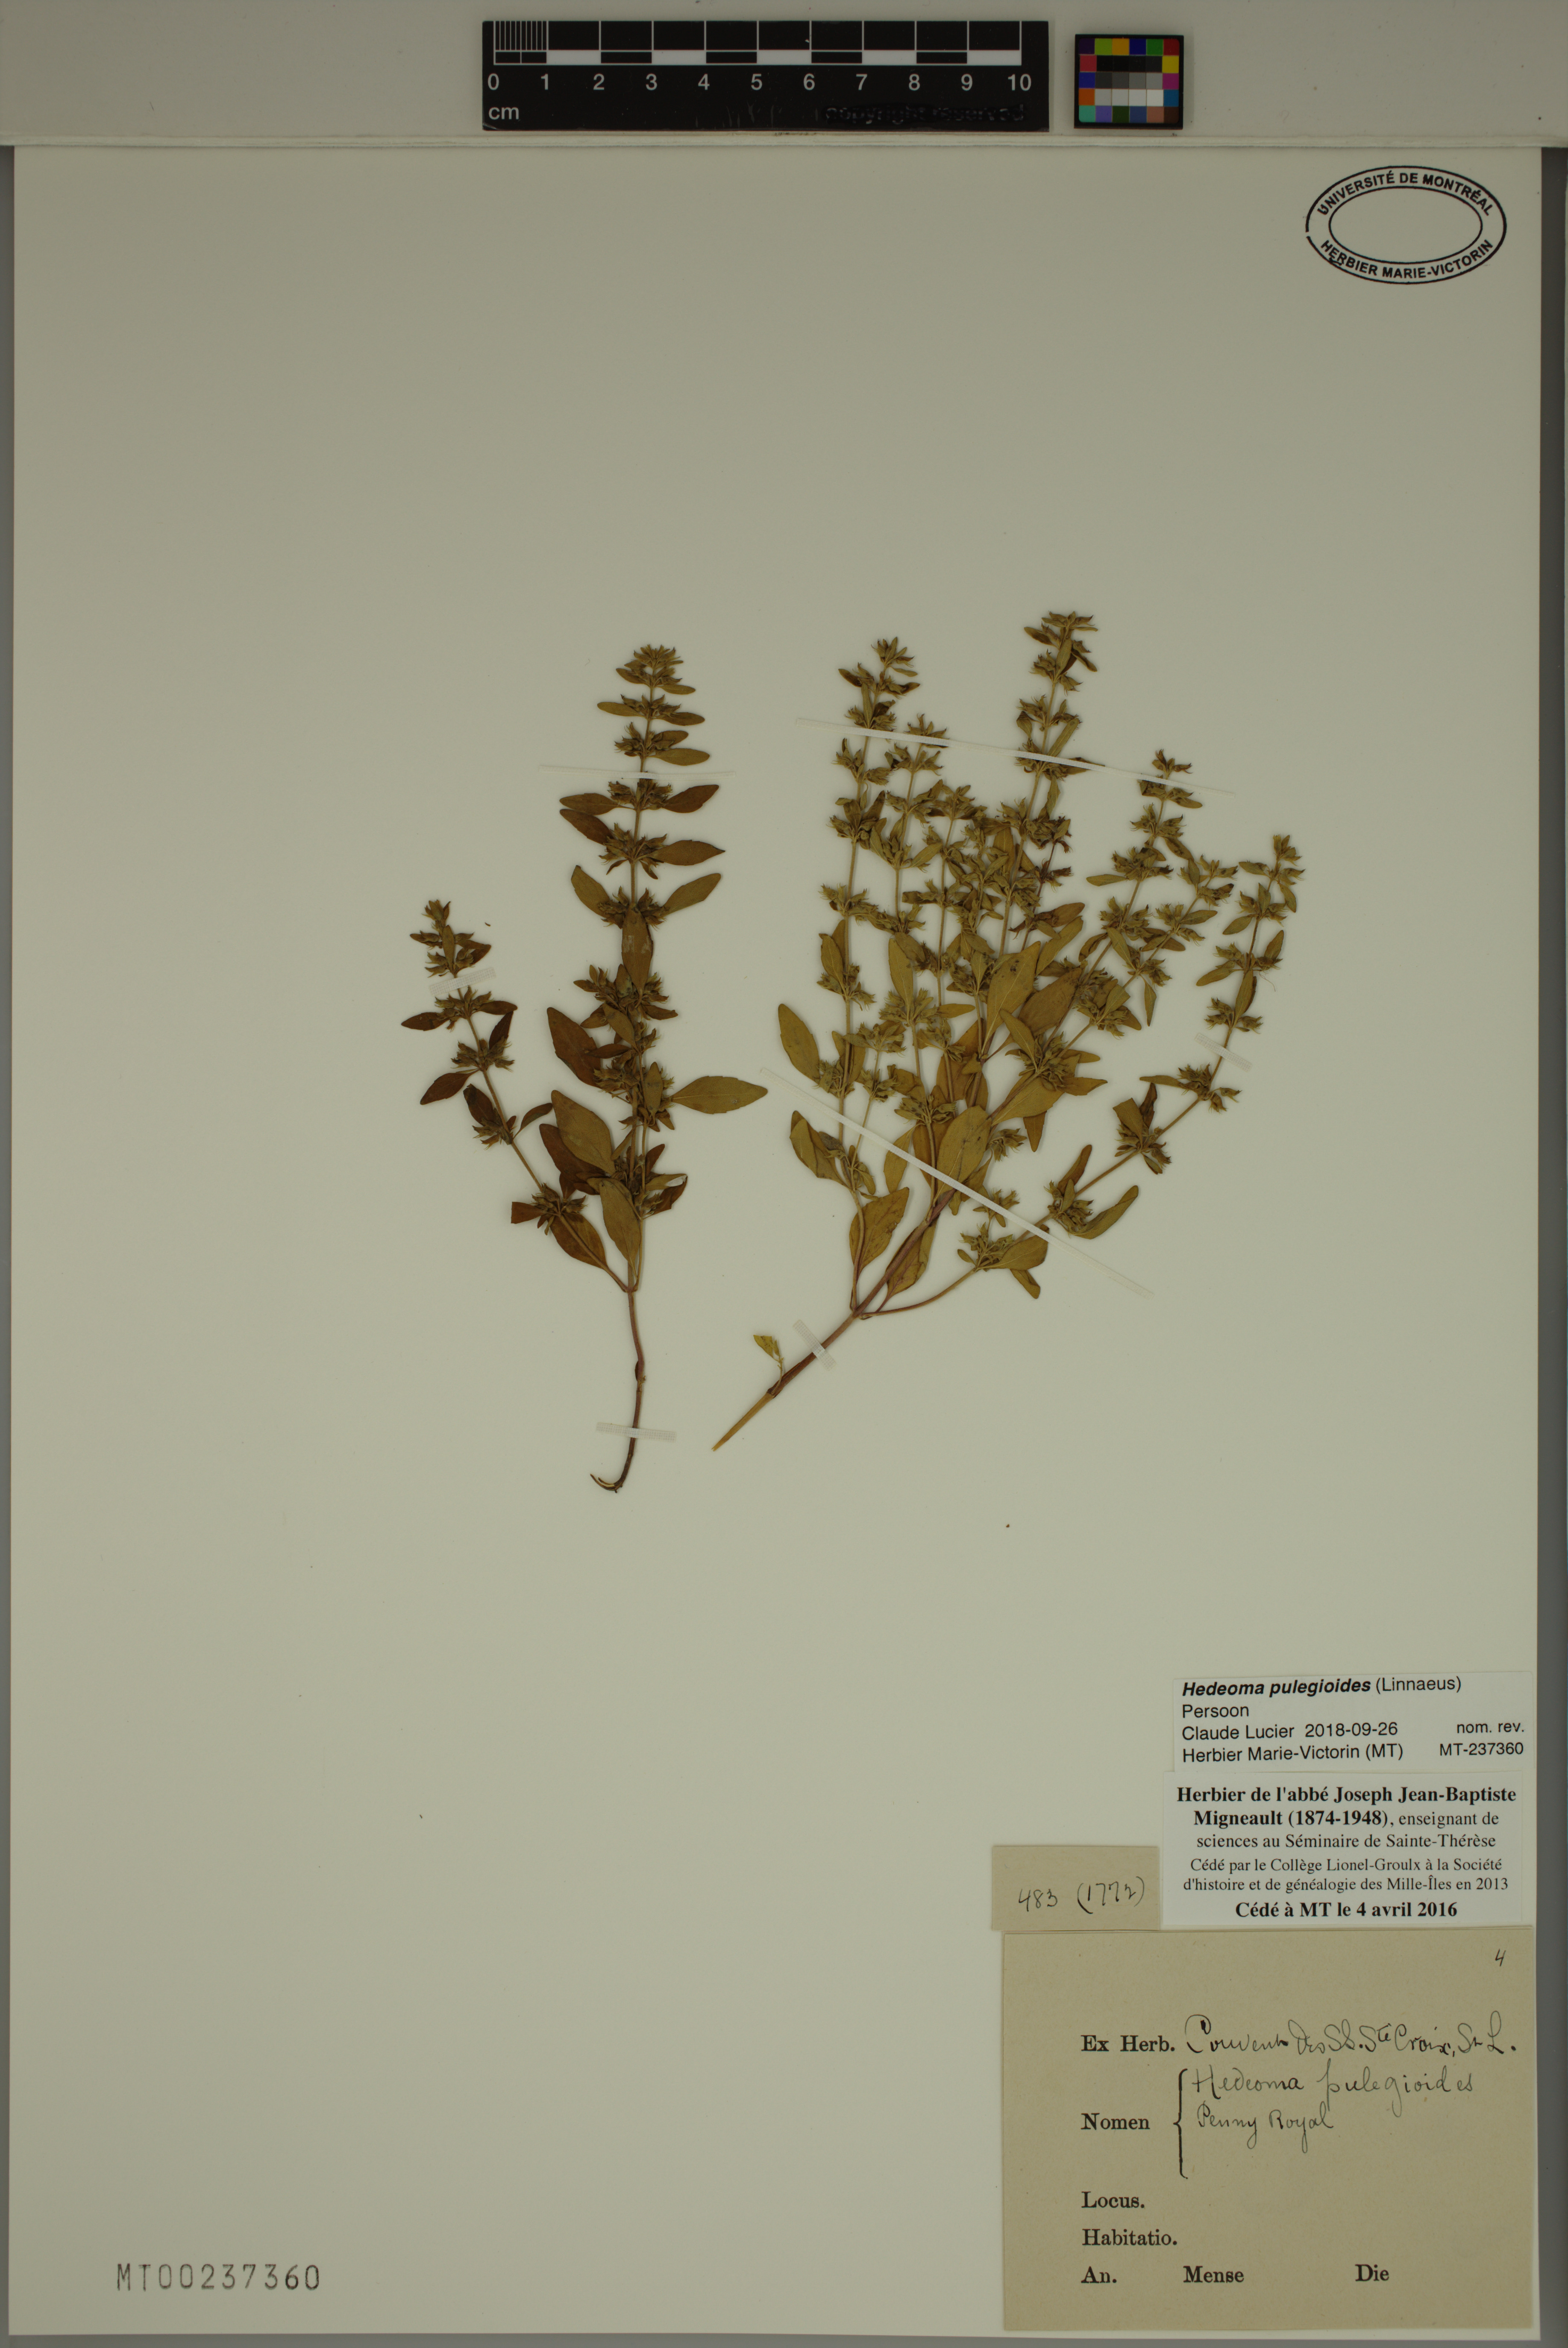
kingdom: Plantae
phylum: Tracheophyta
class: Magnoliopsida
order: Lamiales
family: Lamiaceae
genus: Hedeoma
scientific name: Hedeoma pulegioides
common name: American false pennyroyal
